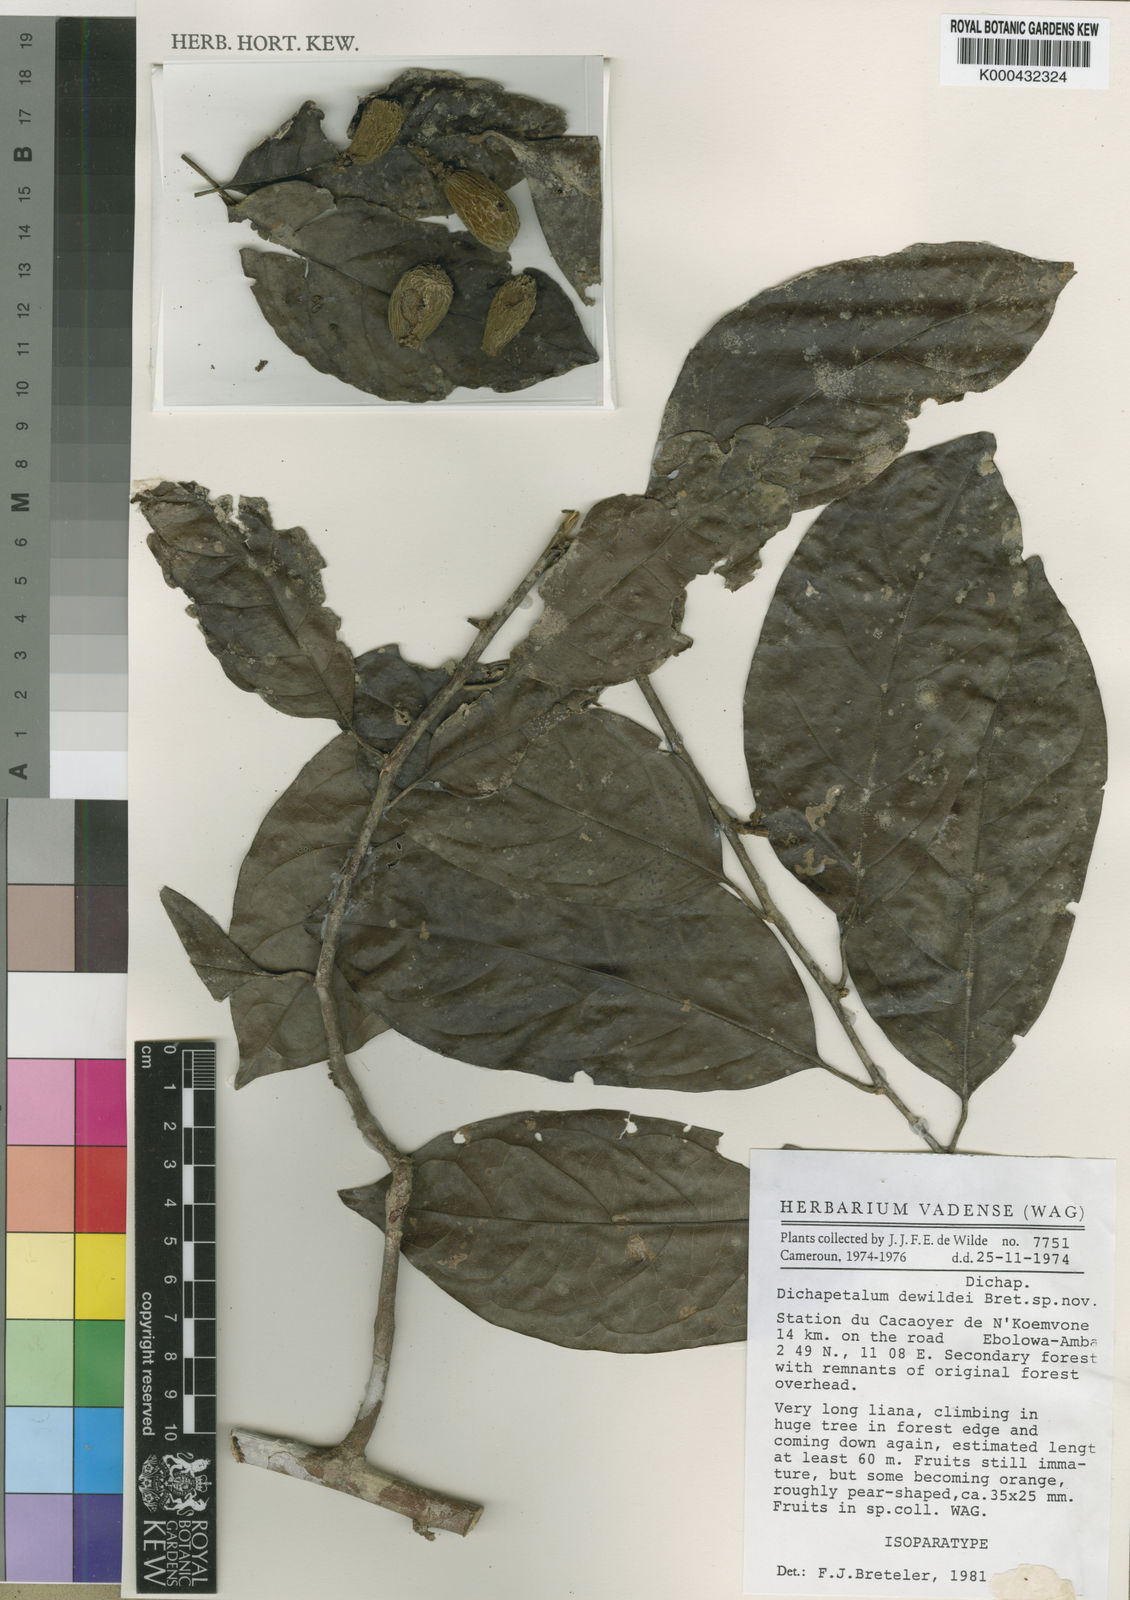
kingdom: Plantae
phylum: Tracheophyta
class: Magnoliopsida
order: Malpighiales
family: Dichapetalaceae
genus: Dichapetalum
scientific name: Dichapetalum dewildei
